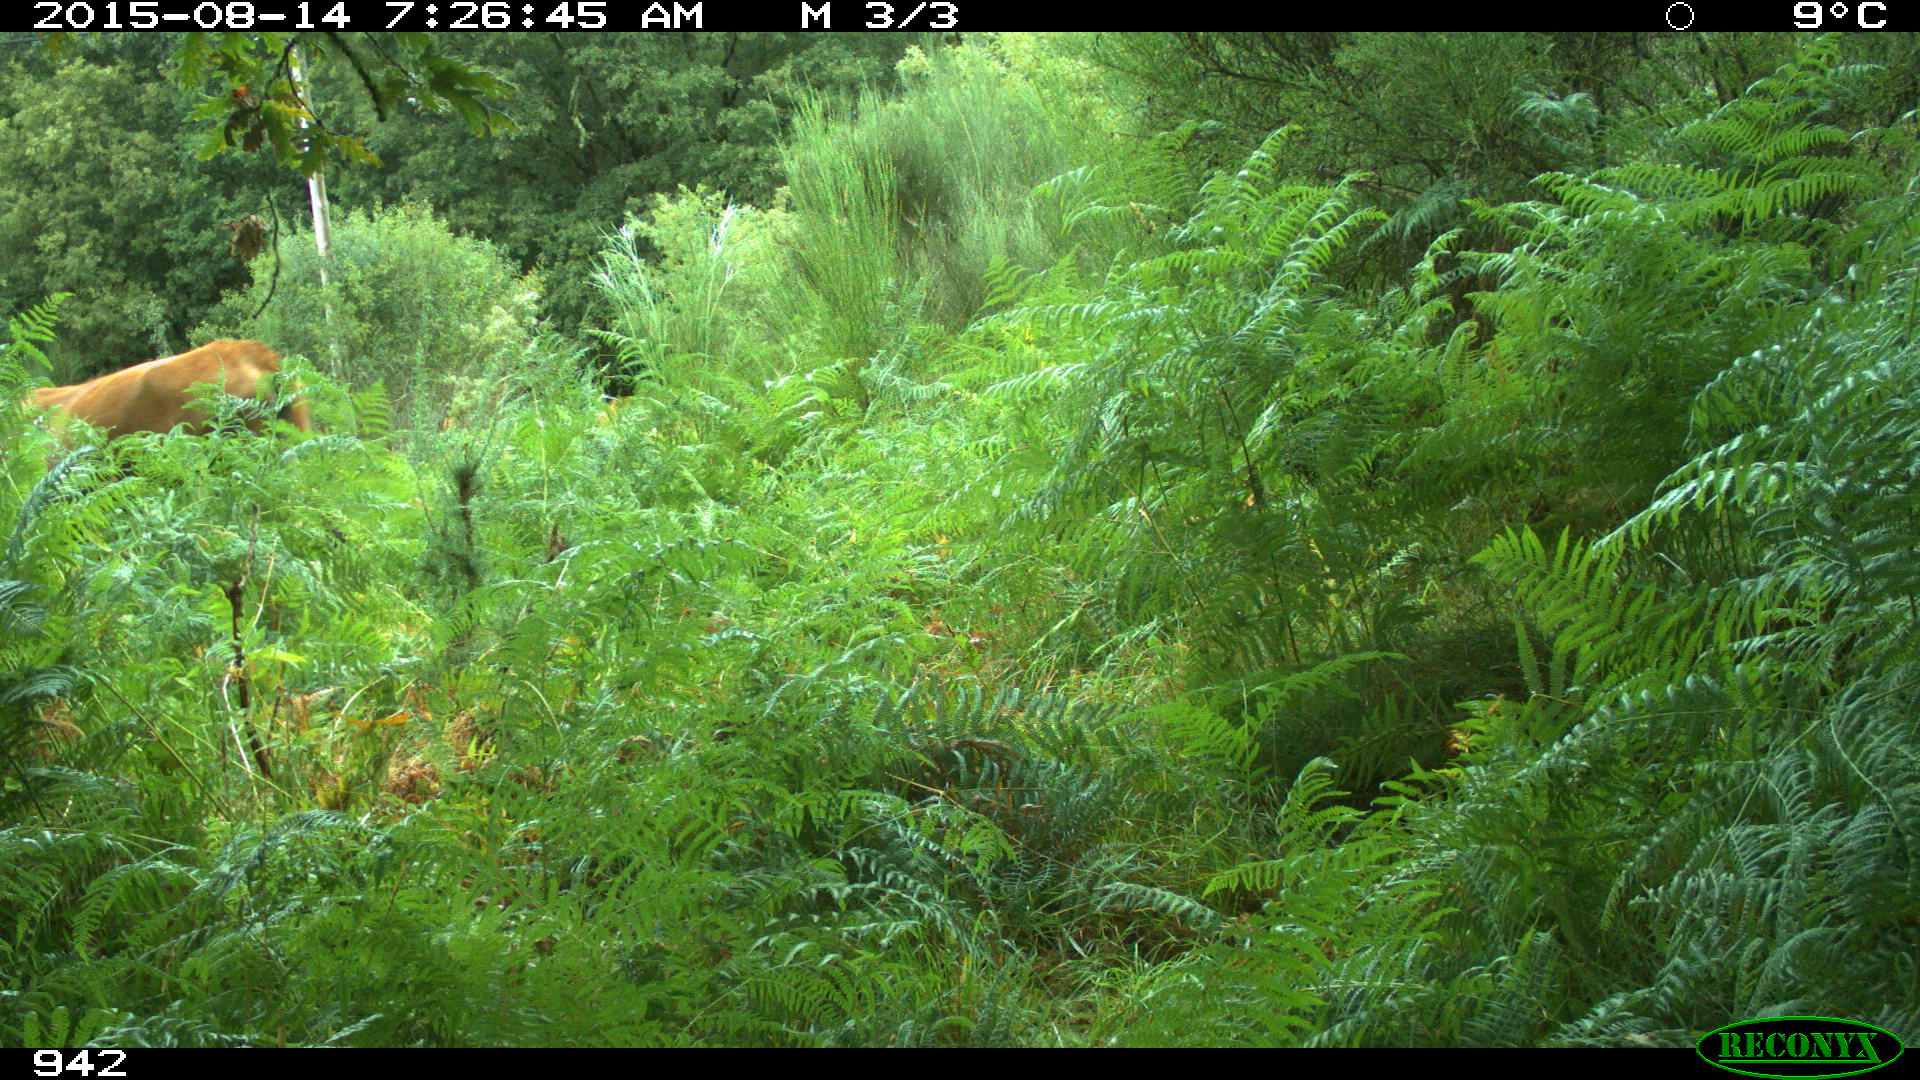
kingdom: Animalia
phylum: Chordata
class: Mammalia
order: Artiodactyla
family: Bovidae
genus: Bos
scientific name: Bos taurus
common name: Domesticated cattle
